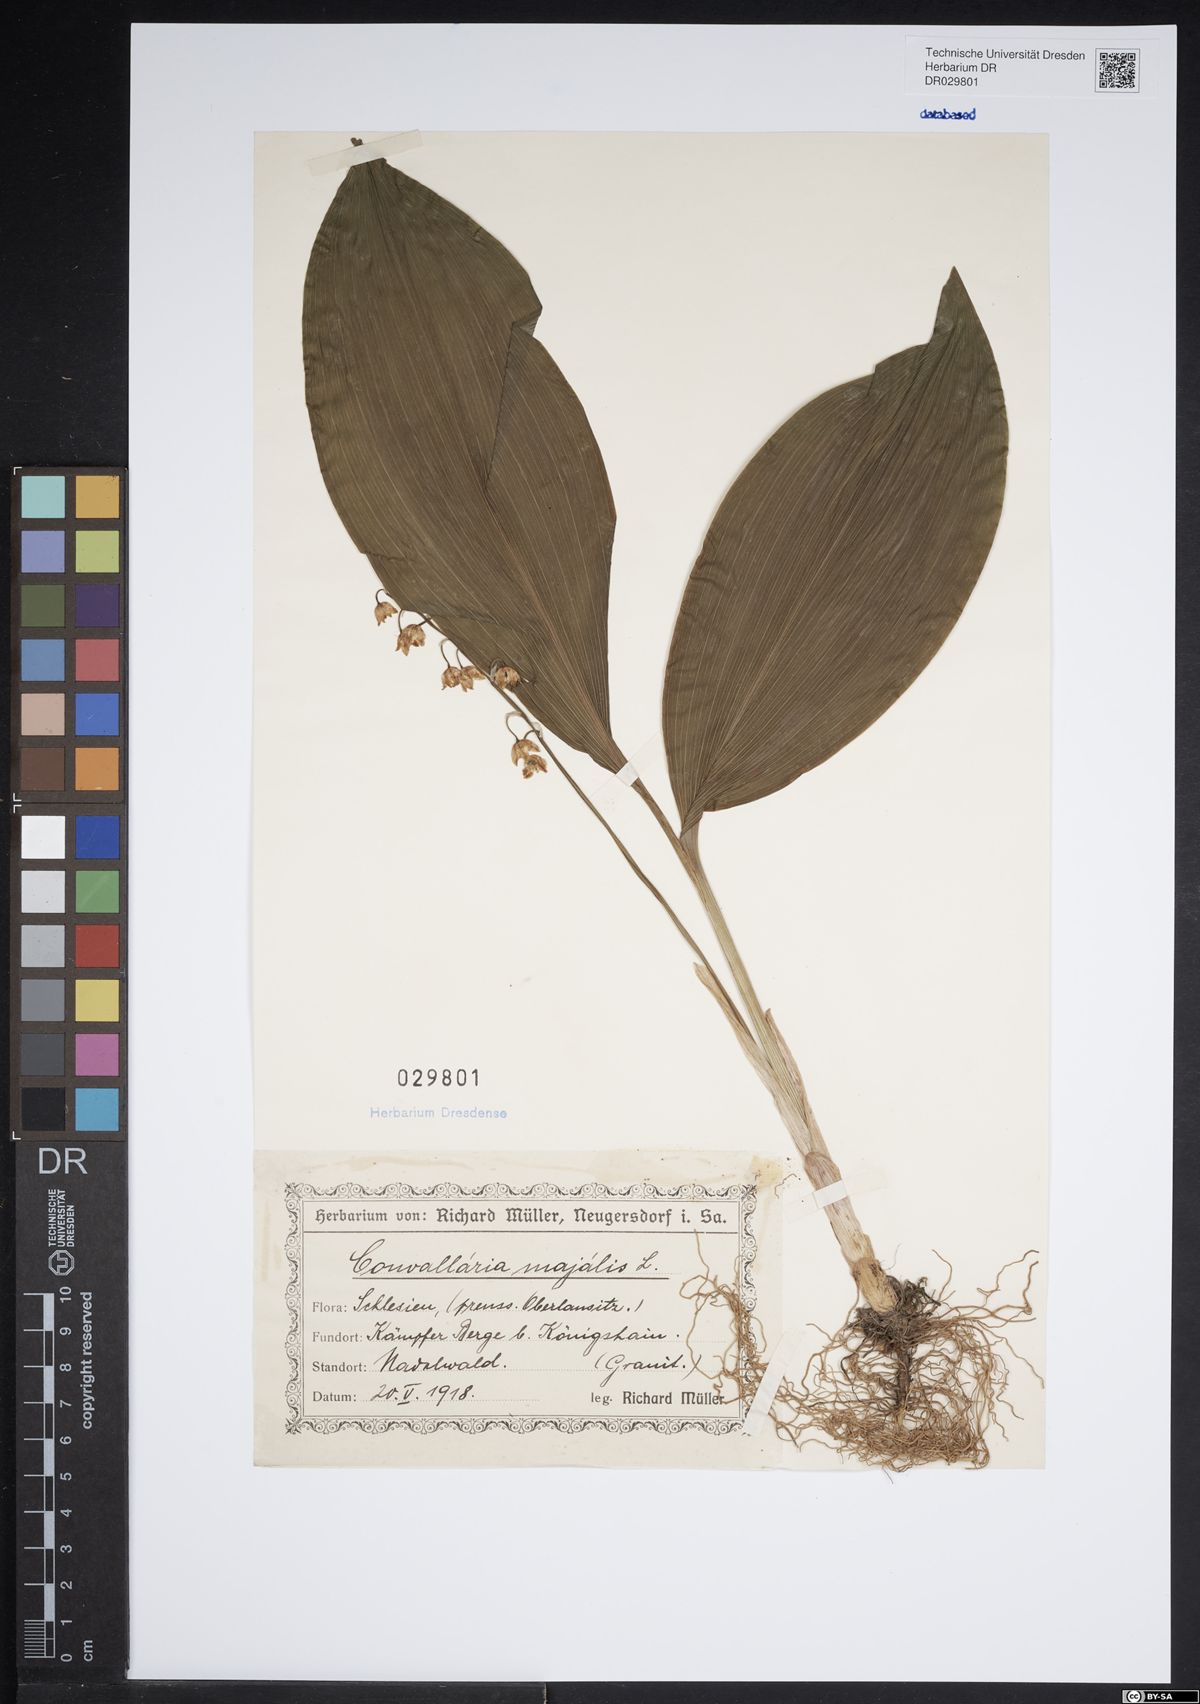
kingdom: Plantae
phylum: Tracheophyta
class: Liliopsida
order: Asparagales
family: Asparagaceae
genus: Convallaria
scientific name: Convallaria majalis
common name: Lily-of-the-valley
